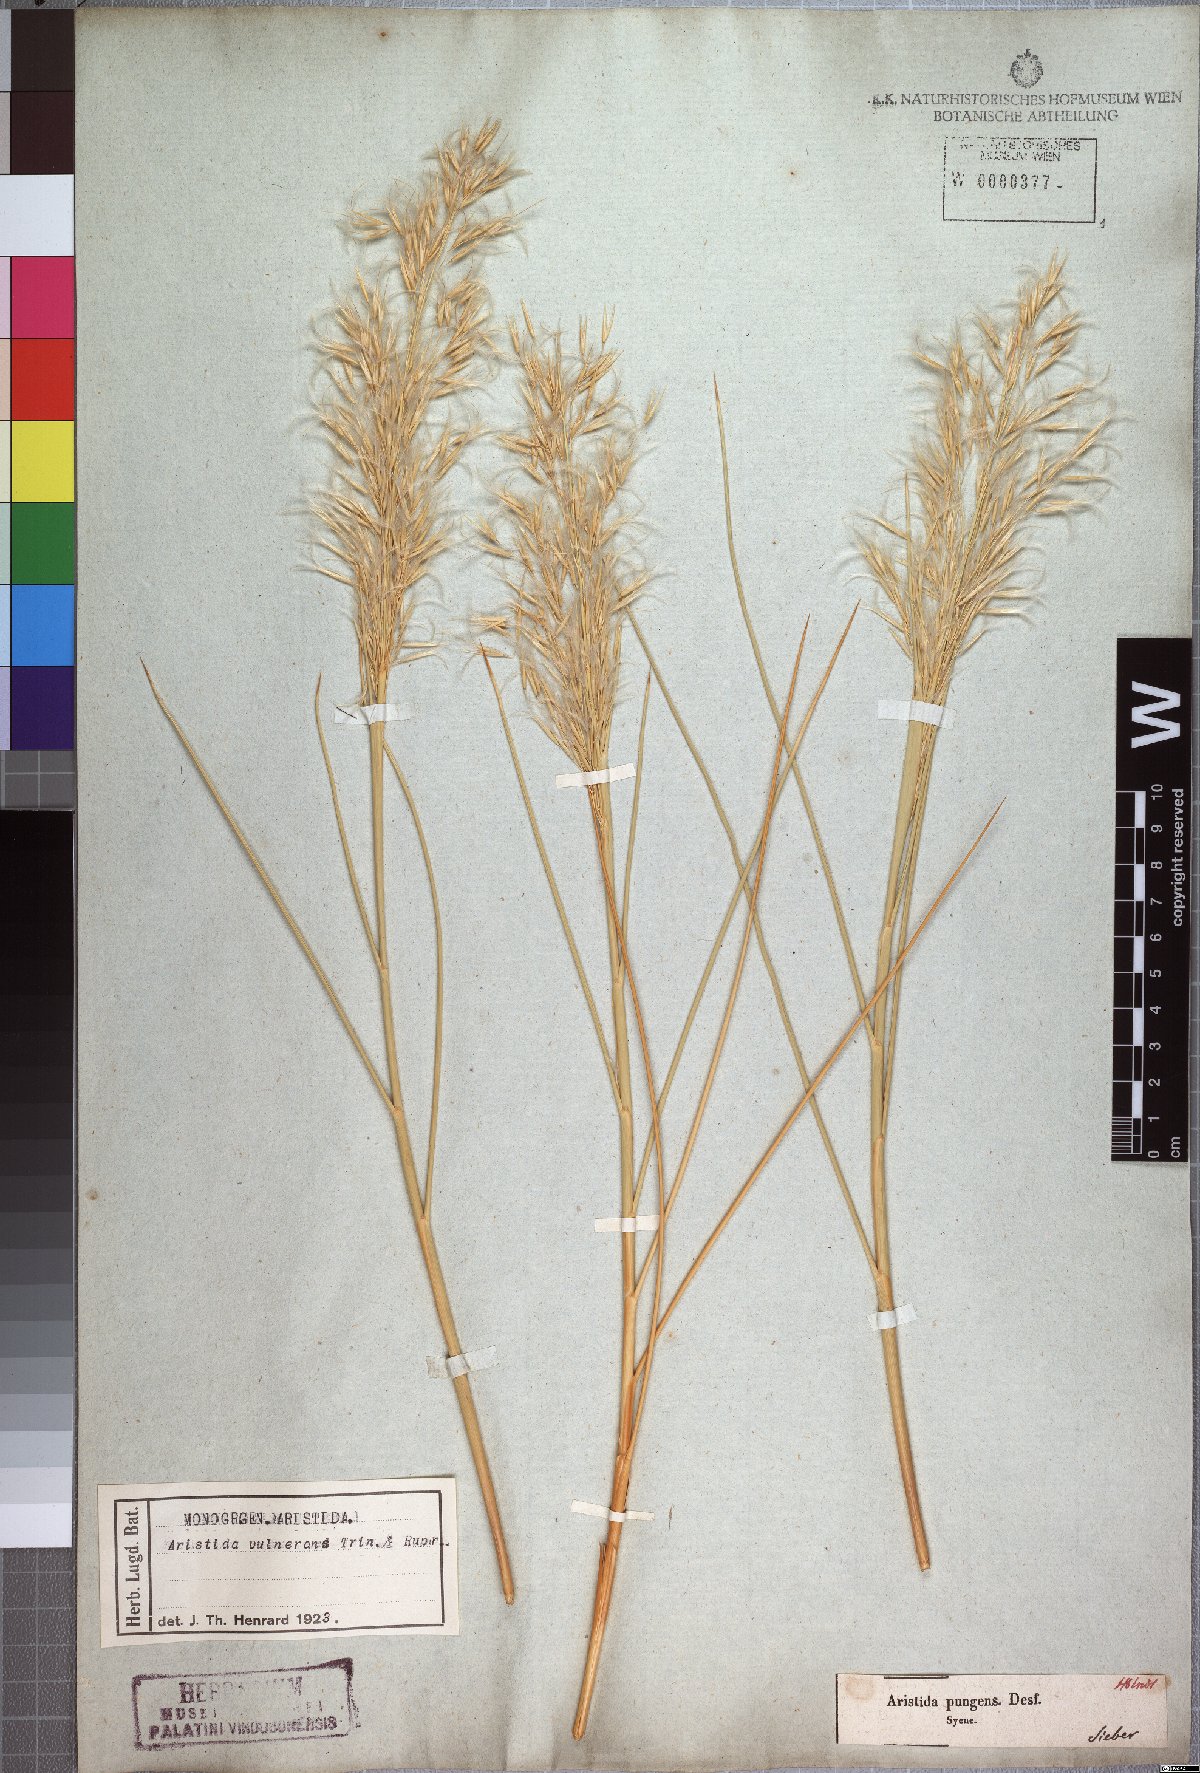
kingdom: Plantae
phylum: Tracheophyta
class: Liliopsida
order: Poales
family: Poaceae
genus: Stipagrostis
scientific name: Stipagrostis vulnerans
